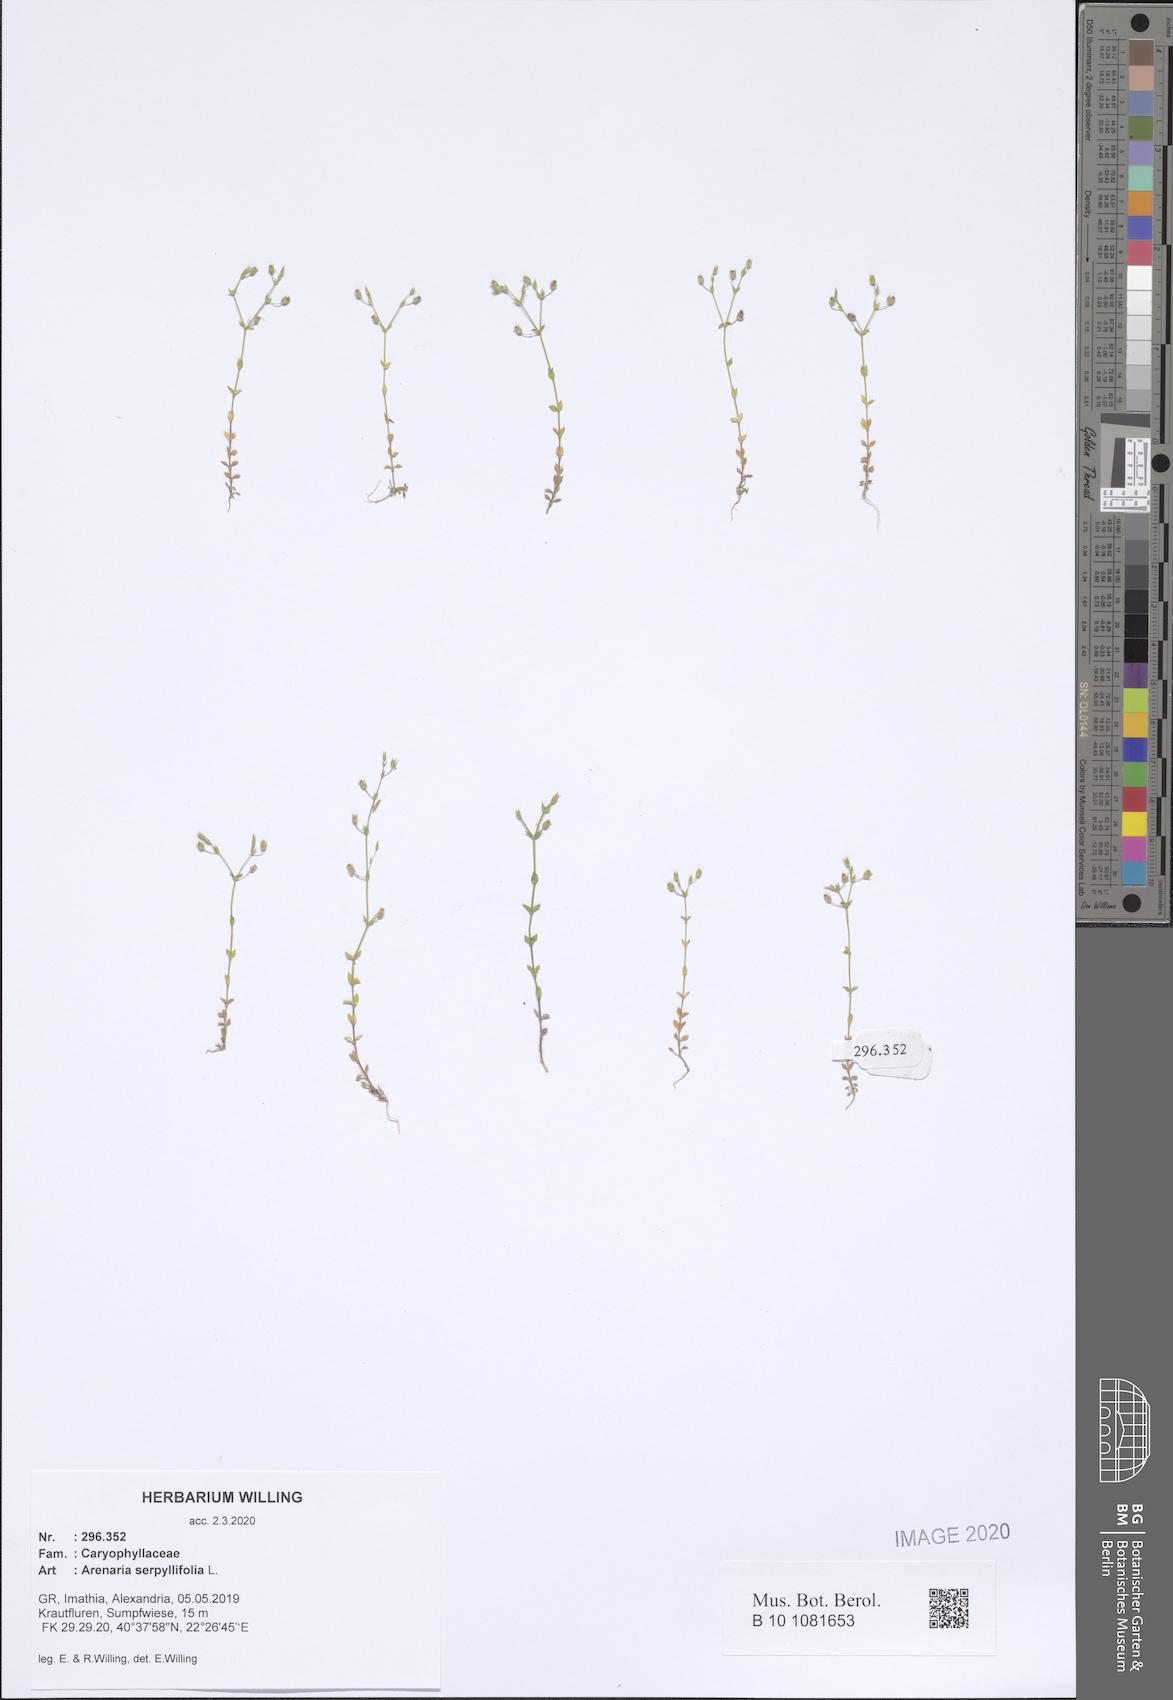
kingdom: Plantae
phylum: Tracheophyta
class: Magnoliopsida
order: Caryophyllales
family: Caryophyllaceae
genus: Arenaria
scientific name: Arenaria serpyllifolia
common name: Thyme-leaved sandwort
